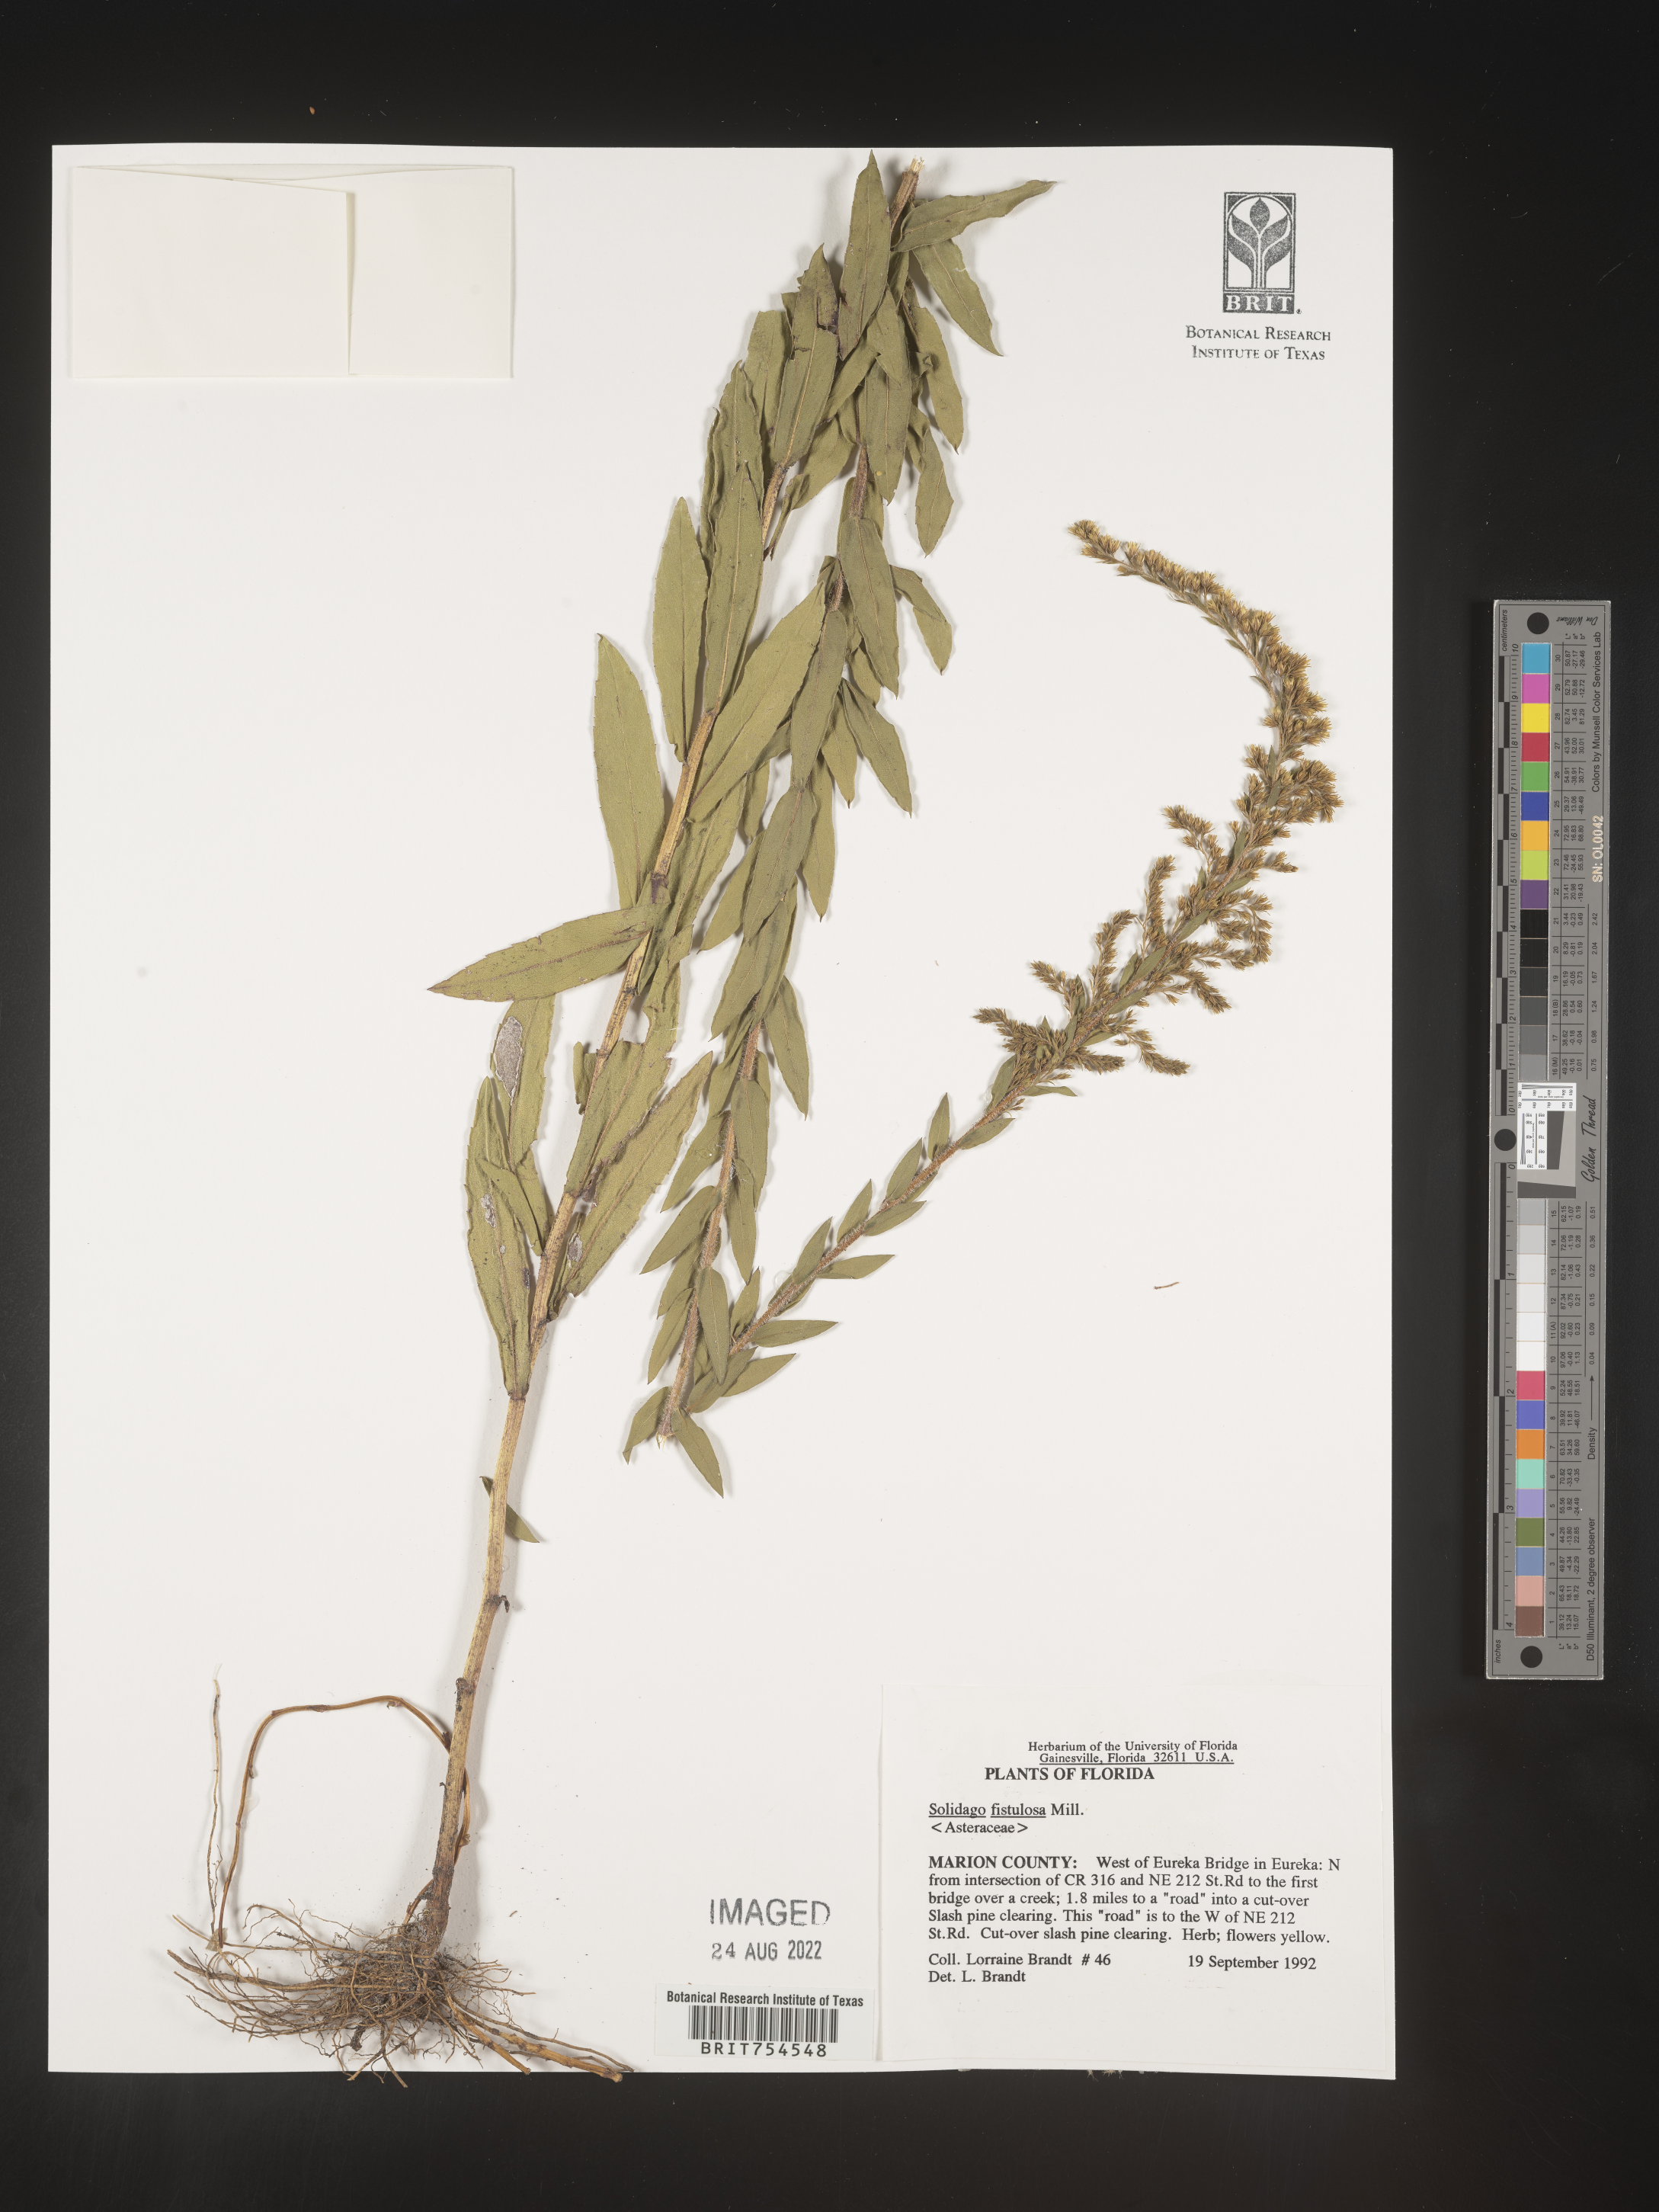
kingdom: Plantae
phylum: Tracheophyta
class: Magnoliopsida
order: Asterales
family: Asteraceae
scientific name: Asteraceae
